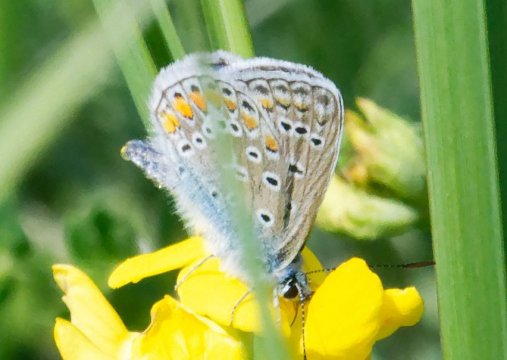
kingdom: Animalia
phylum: Arthropoda
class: Insecta
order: Lepidoptera
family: Lycaenidae
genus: Polyommatus
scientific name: Polyommatus icarus
